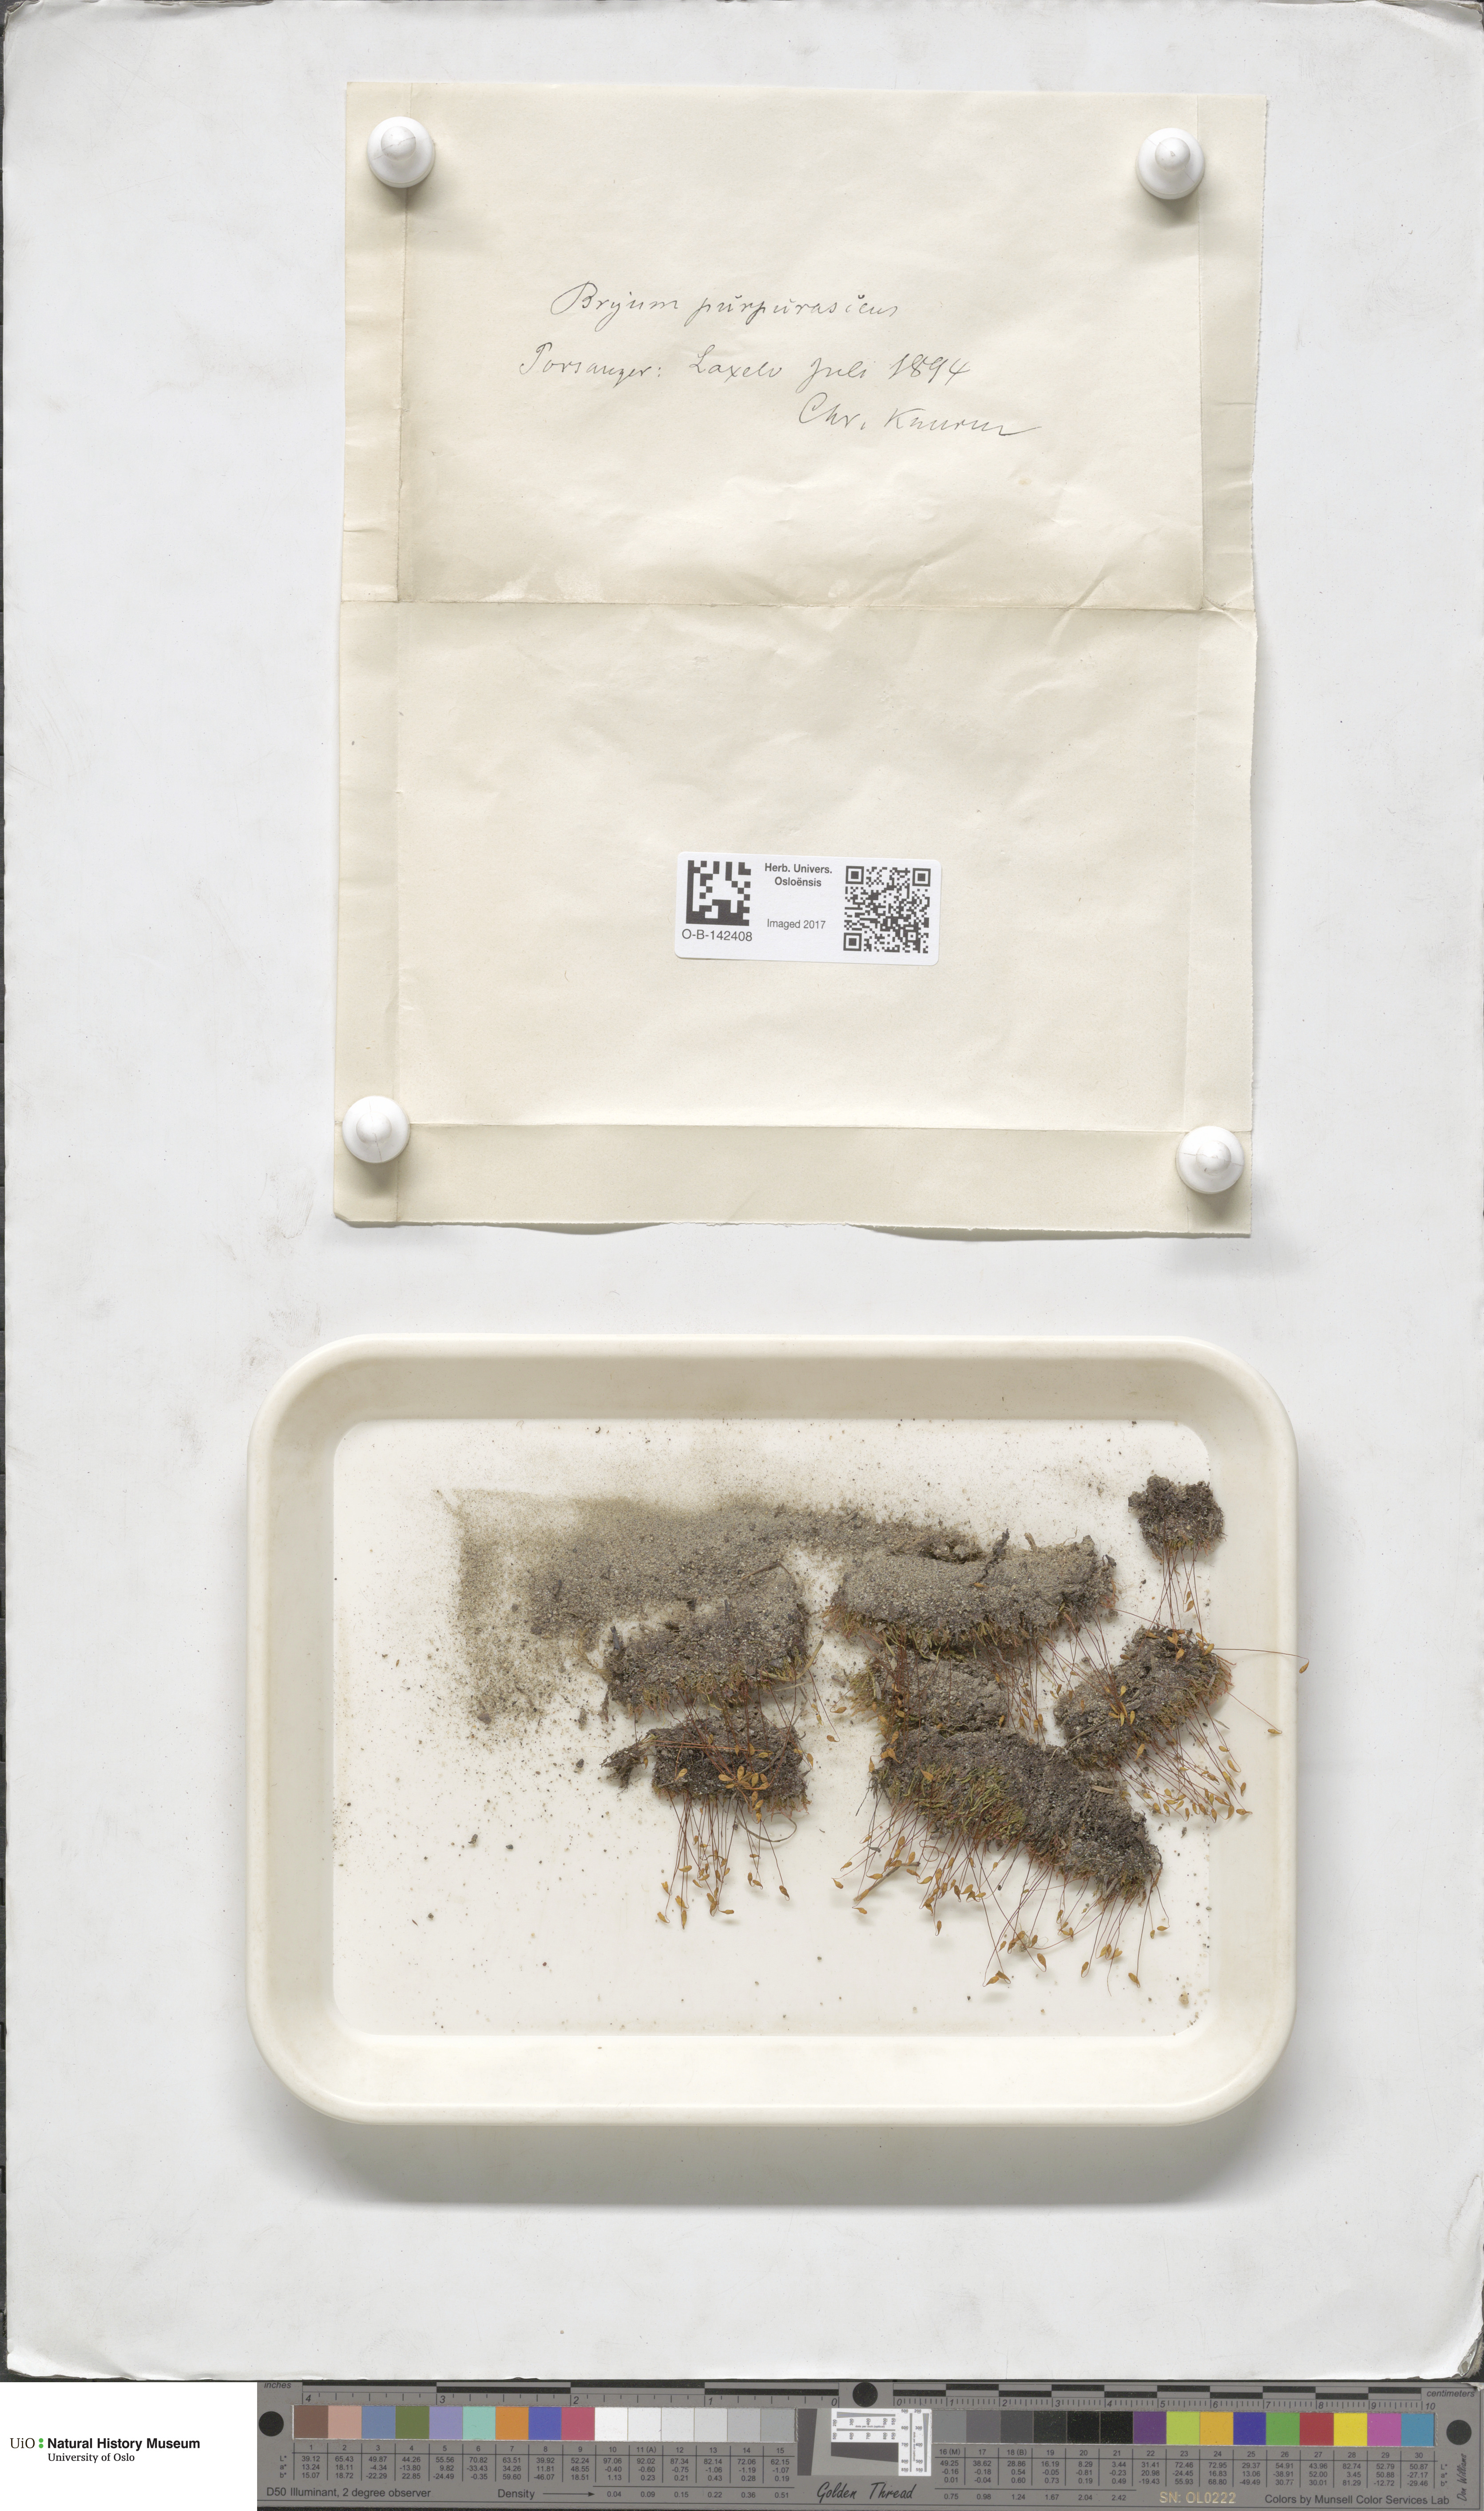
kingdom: Plantae
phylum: Bryophyta
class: Bryopsida
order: Bryales
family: Bryaceae
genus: Ptychostomum
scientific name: Ptychostomum arcticum
